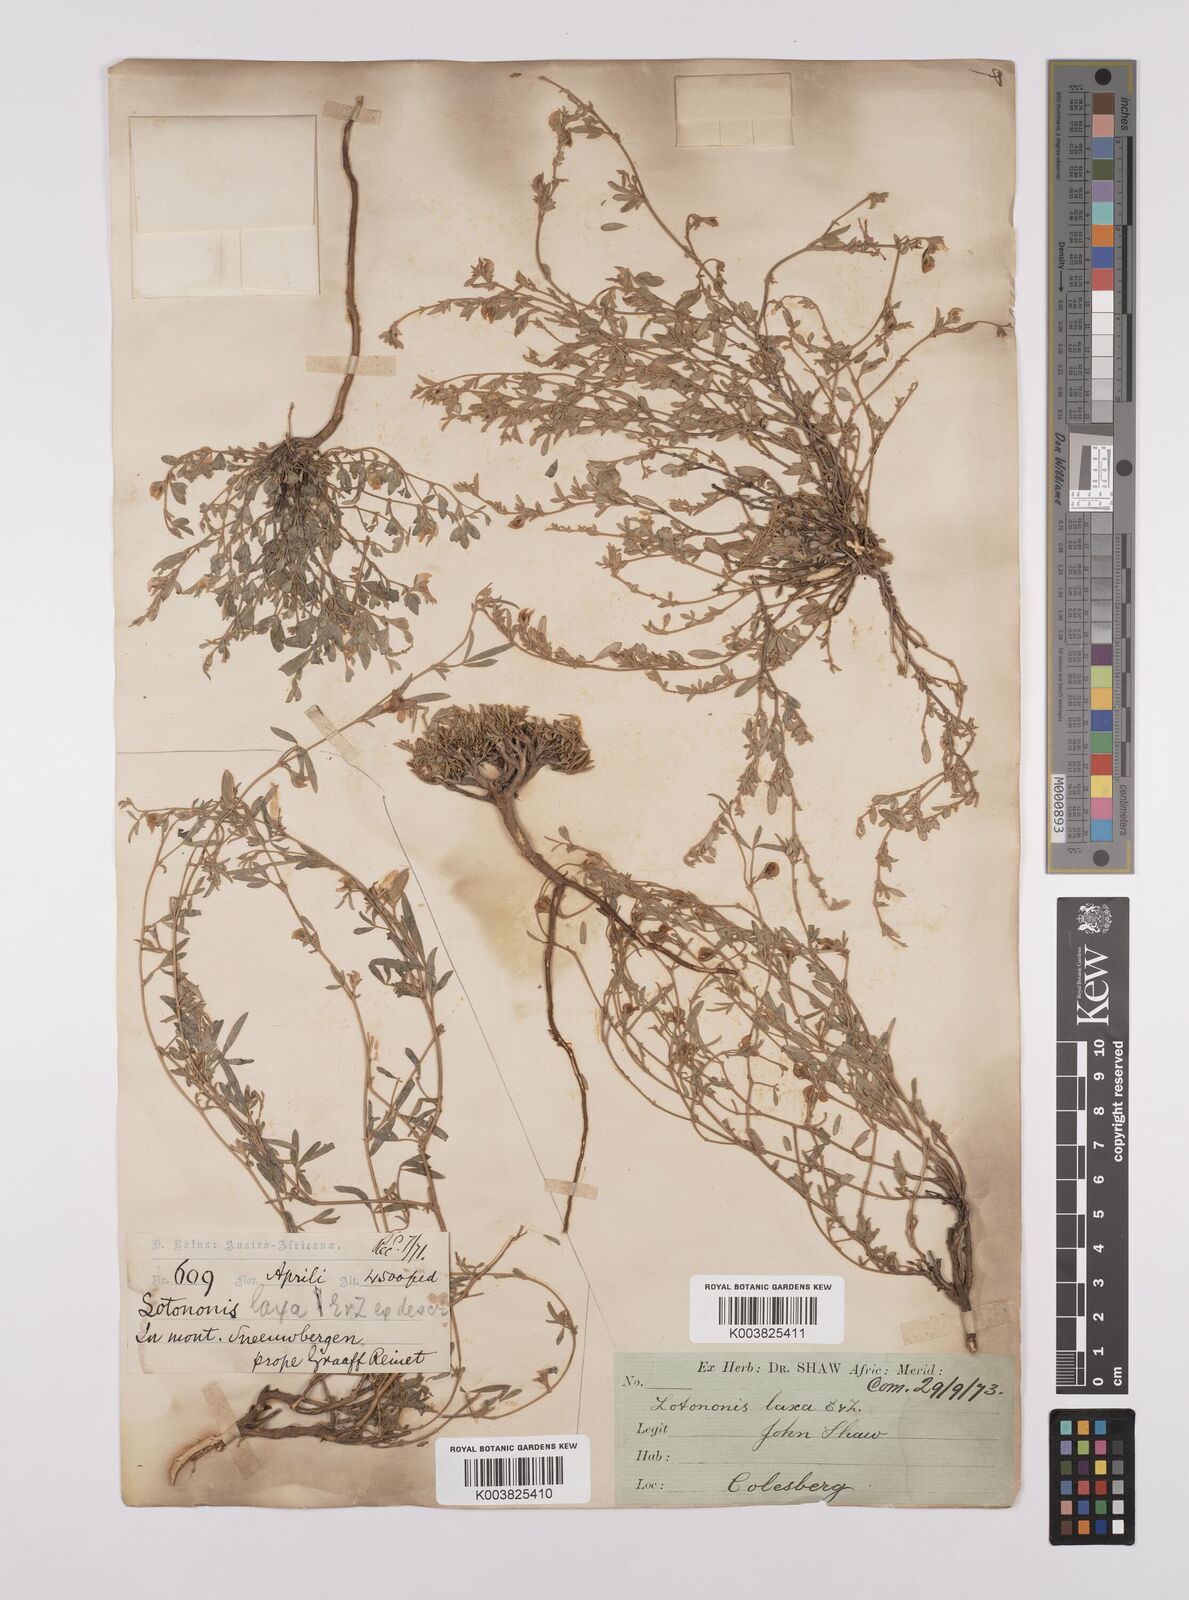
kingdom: Plantae
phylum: Tracheophyta
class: Magnoliopsida
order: Fabales
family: Fabaceae
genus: Lotononis
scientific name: Lotononis laxa
